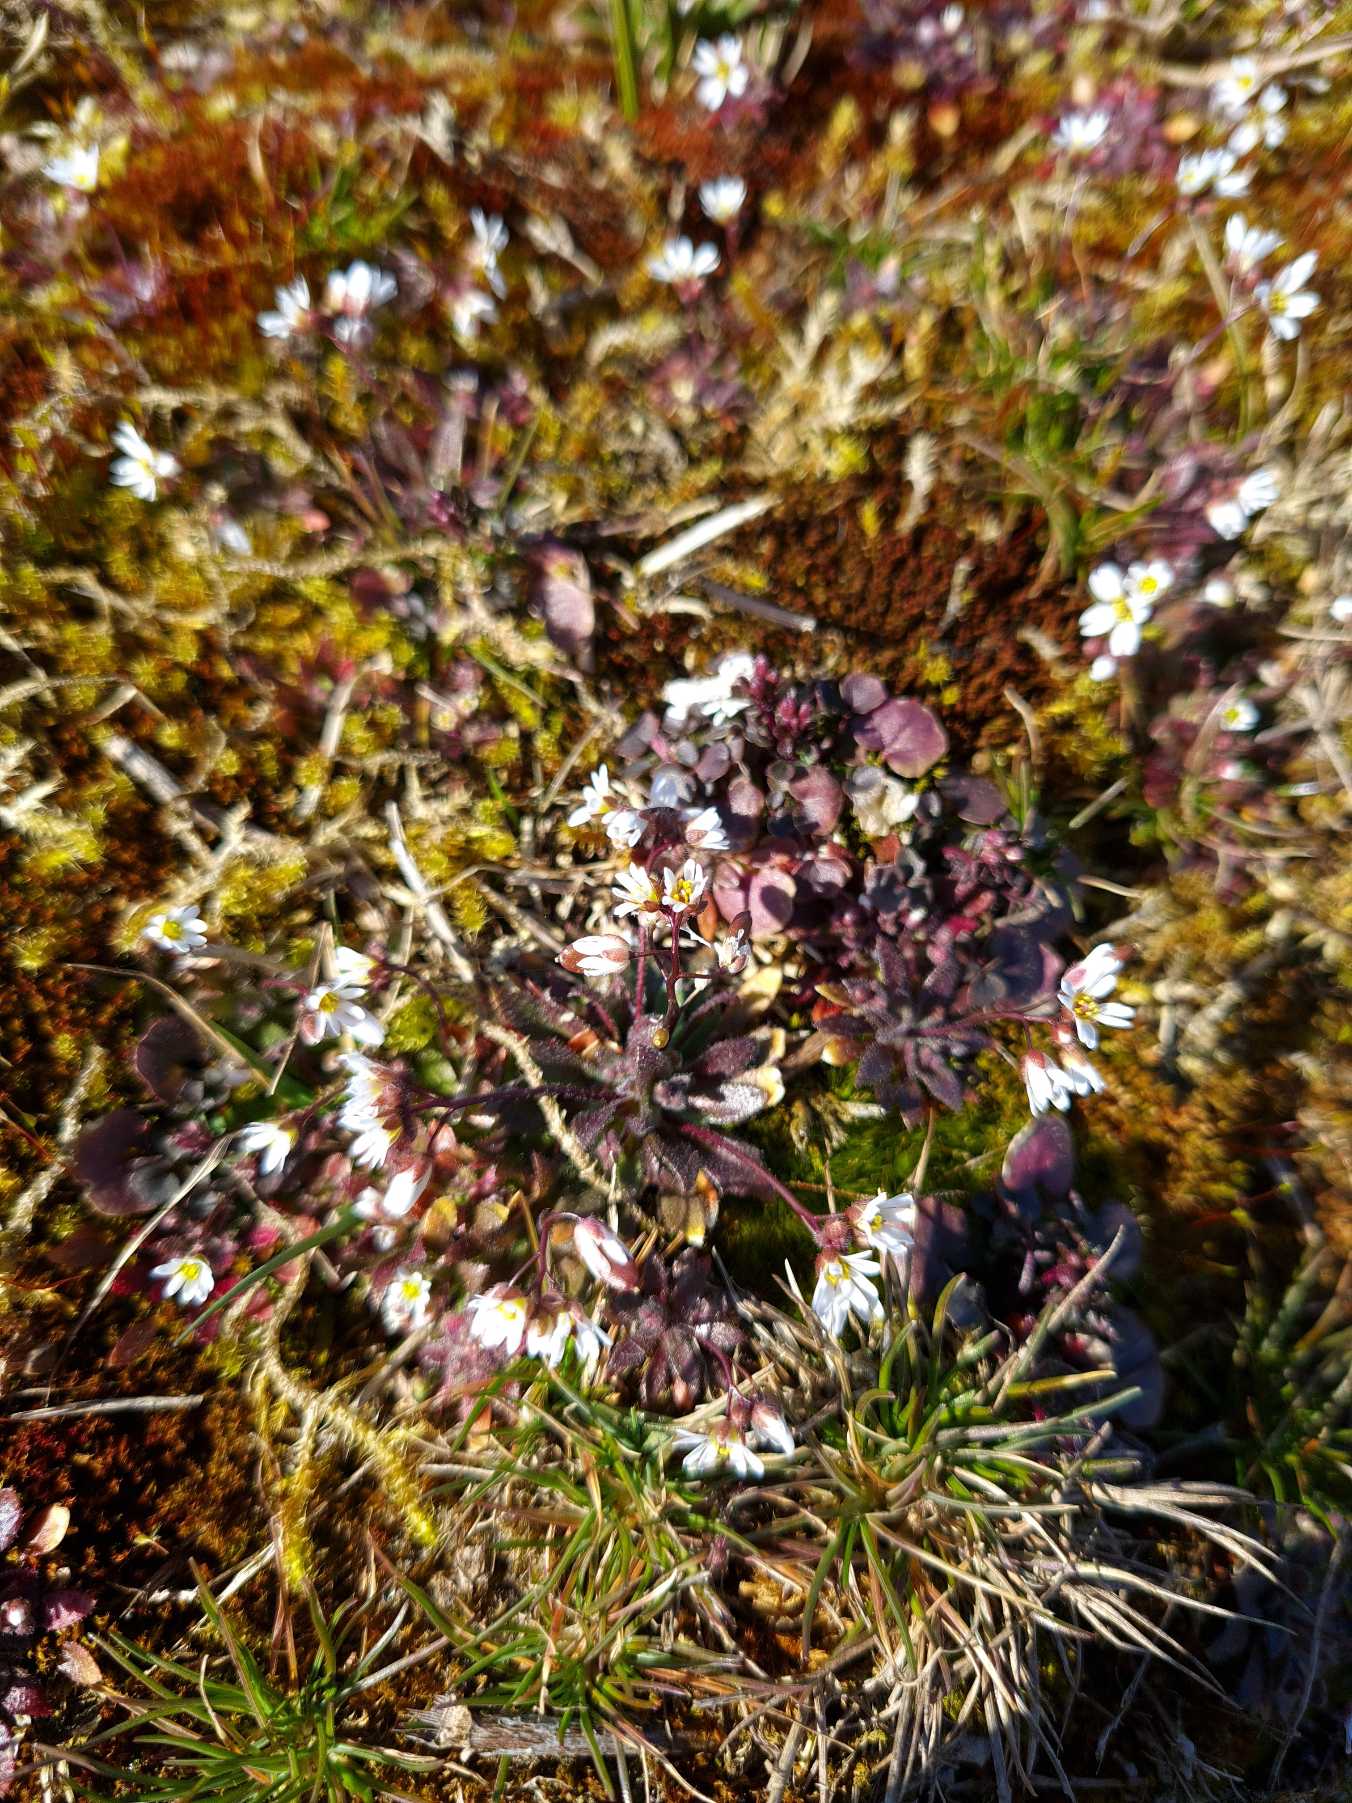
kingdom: Plantae
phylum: Tracheophyta
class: Magnoliopsida
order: Brassicales
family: Brassicaceae
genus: Draba
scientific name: Draba verna
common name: Vår-gæslingeblomst
